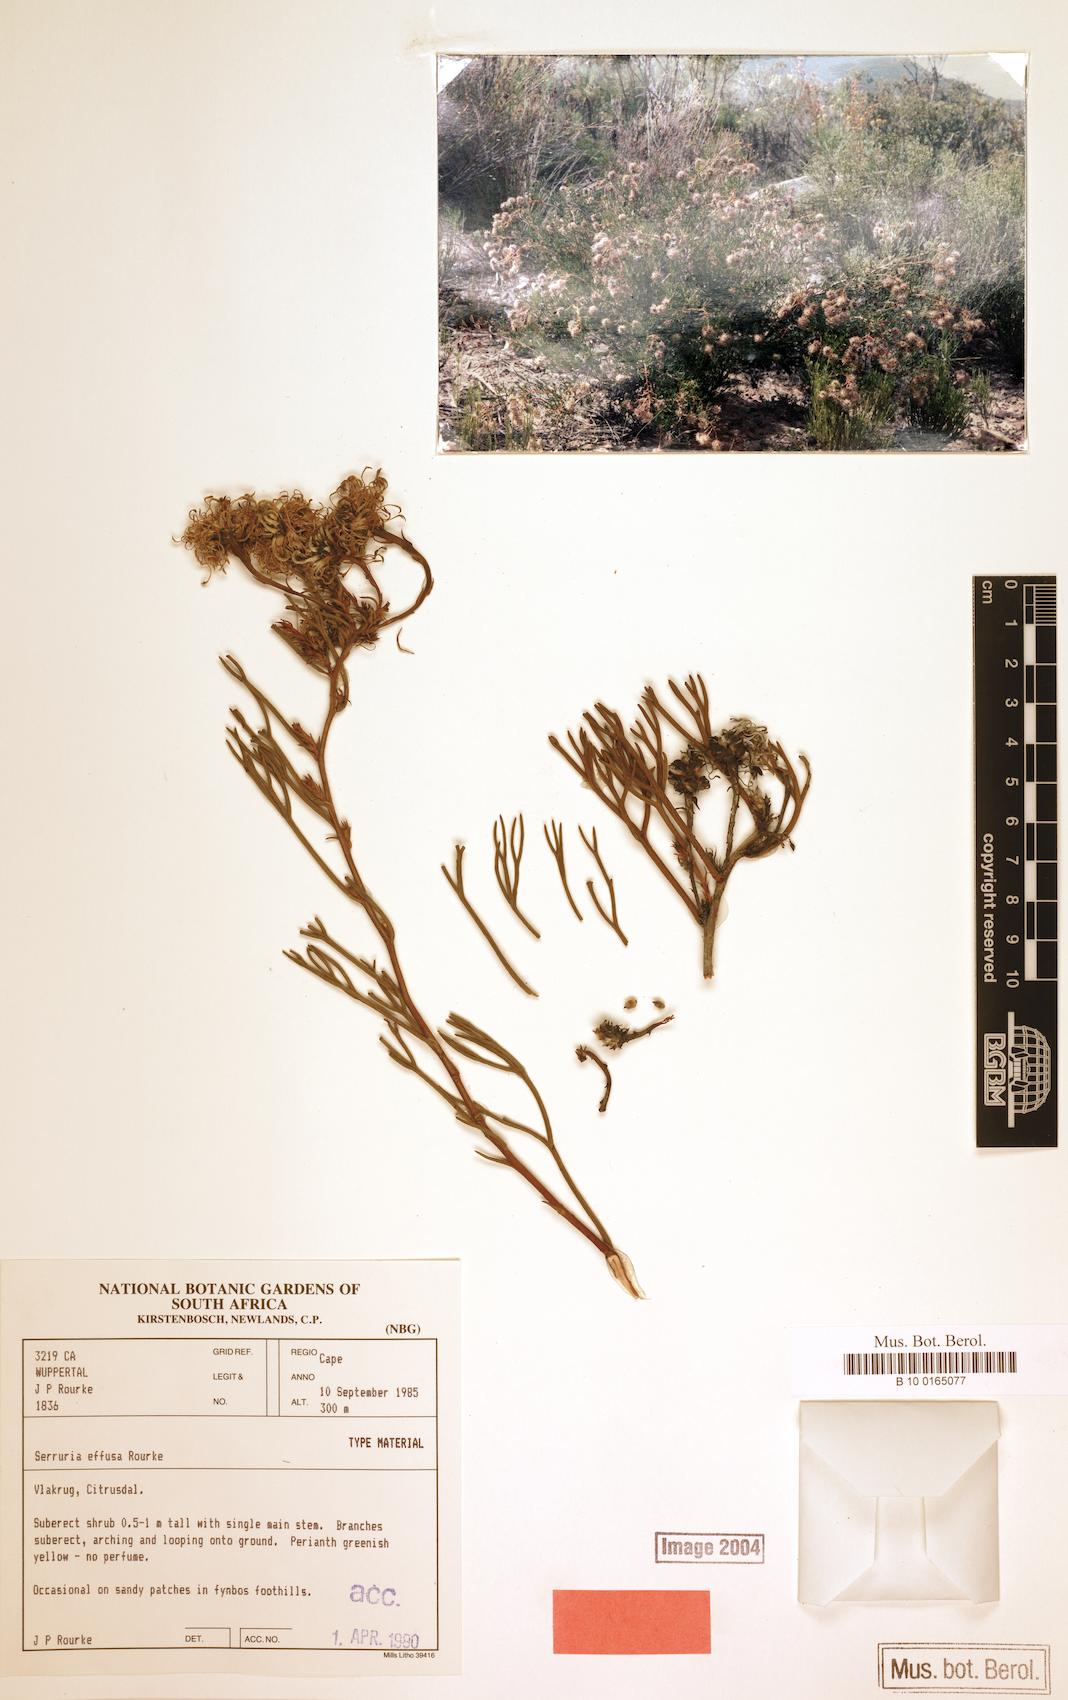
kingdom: Plantae
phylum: Tracheophyta
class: Magnoliopsida
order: Proteales
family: Proteaceae
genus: Serruria
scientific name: Serruria effusa
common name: Candelabra spiderhead
